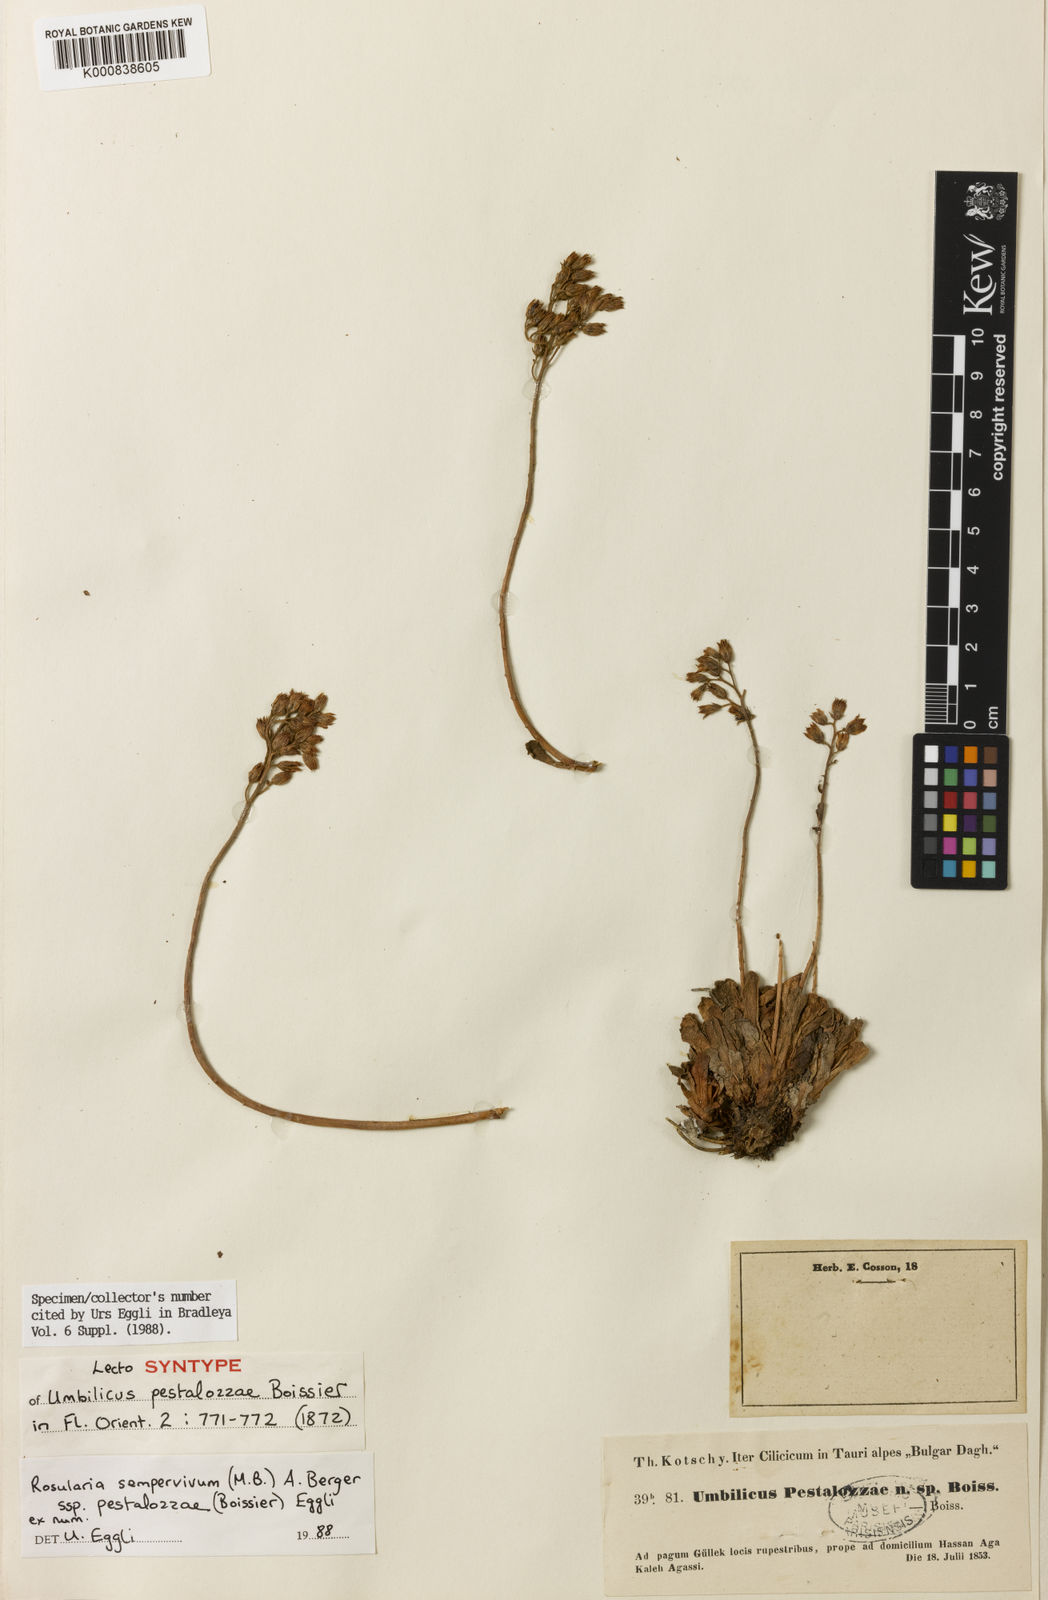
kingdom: Plantae
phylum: Tracheophyta
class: Magnoliopsida
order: Saxifragales
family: Crassulaceae
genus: Rosularia
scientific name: Rosularia sempervivum
